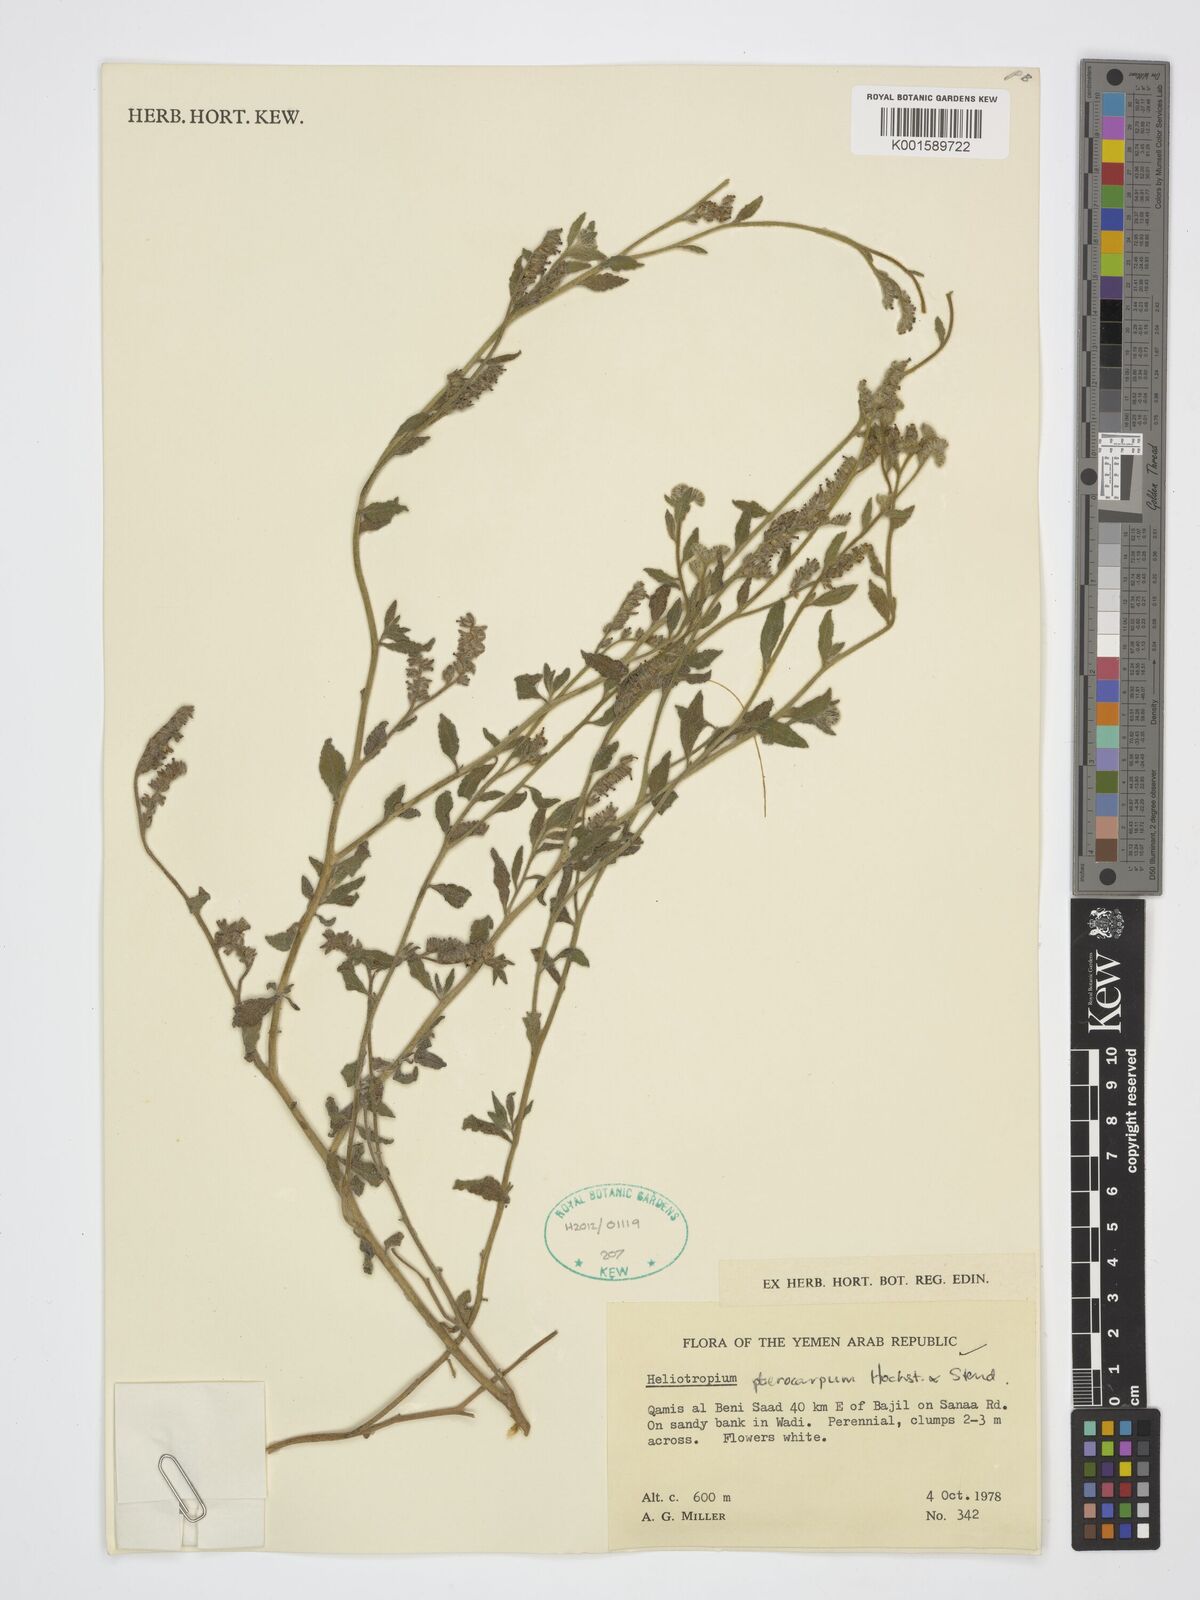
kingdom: Plantae
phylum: Tracheophyta
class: Magnoliopsida
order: Boraginales
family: Heliotropiaceae
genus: Heliotropium
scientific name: Heliotropium pterocarpum
